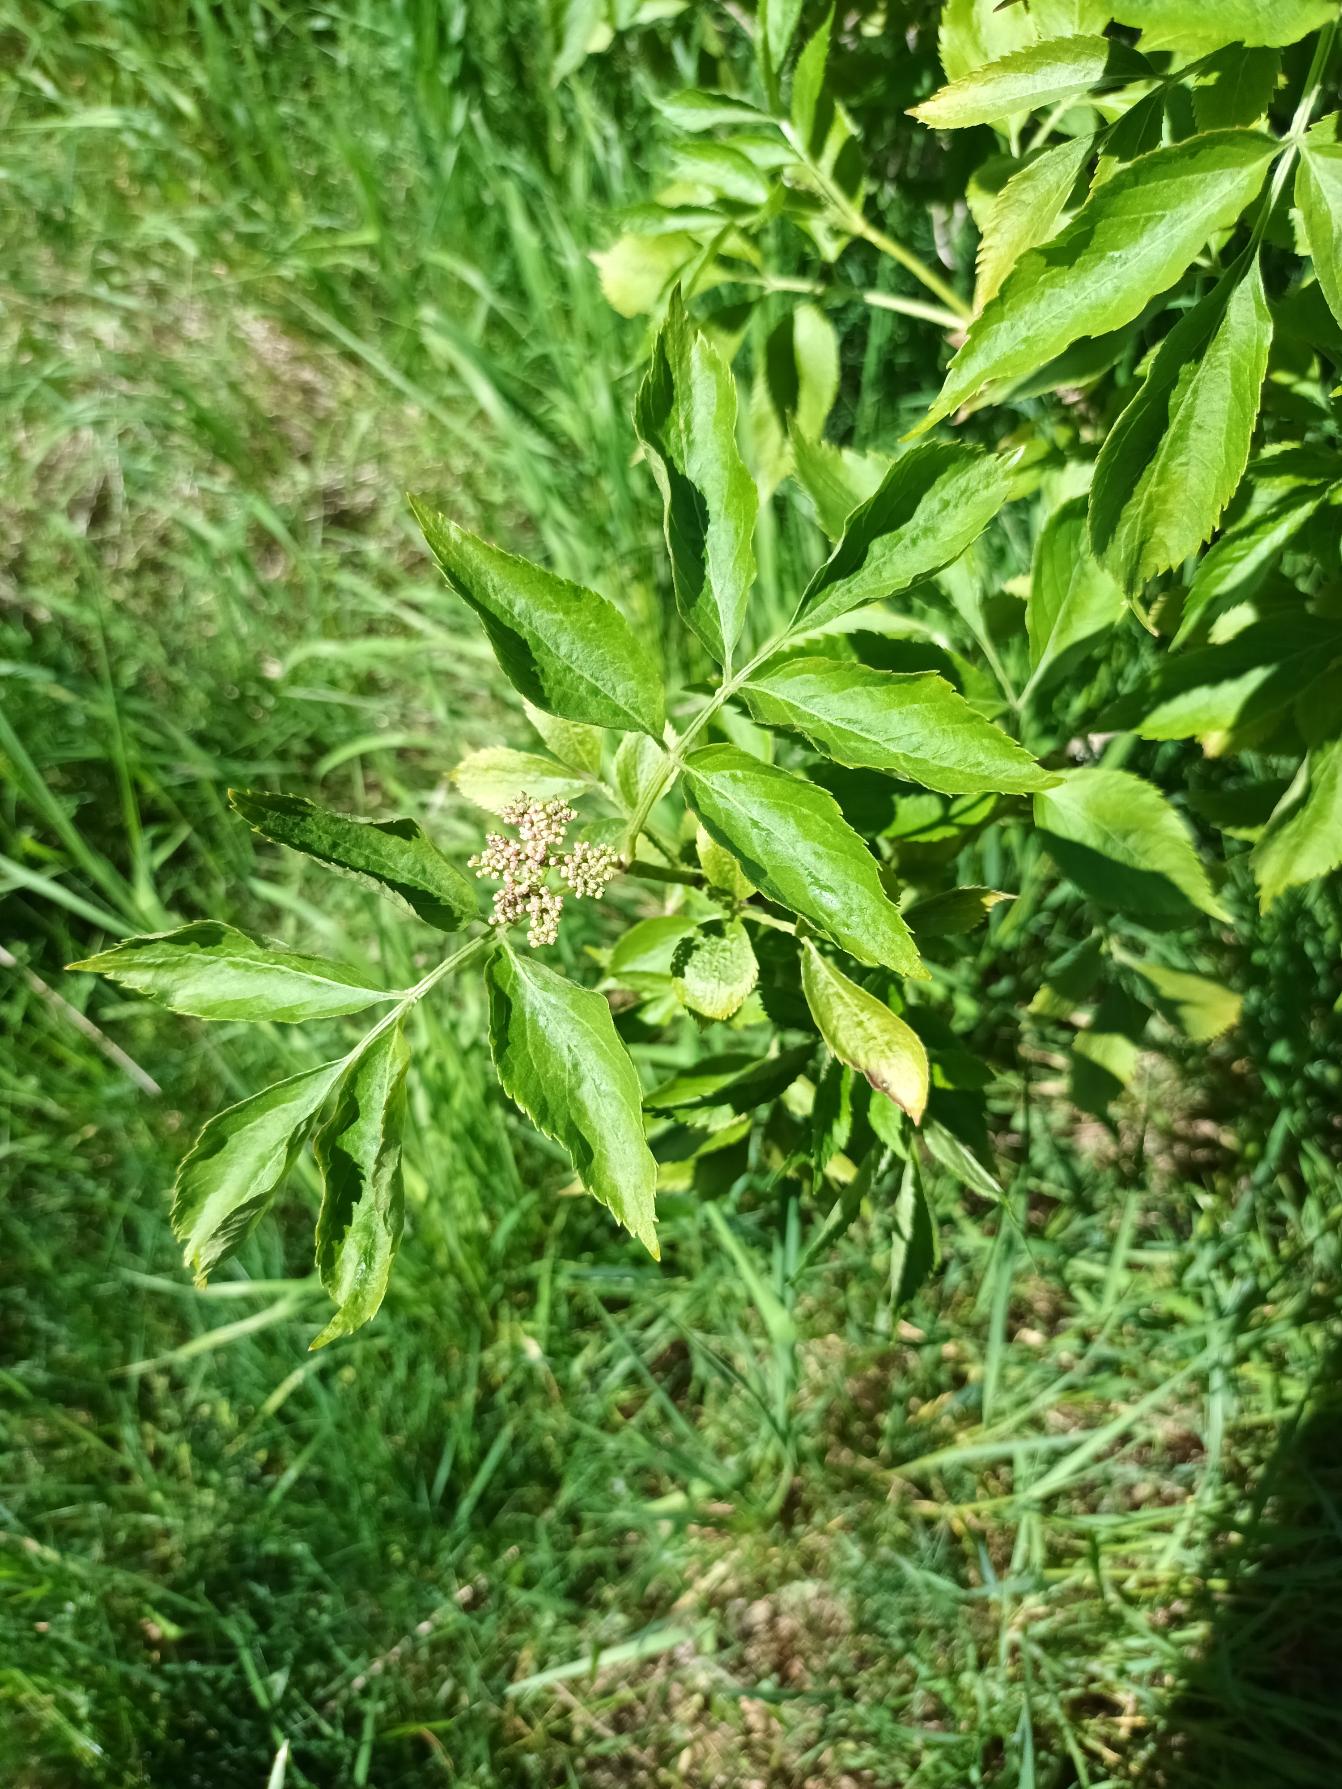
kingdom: Plantae
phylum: Tracheophyta
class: Magnoliopsida
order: Dipsacales
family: Viburnaceae
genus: Sambucus
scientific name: Sambucus nigra
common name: Almindelig hyld
